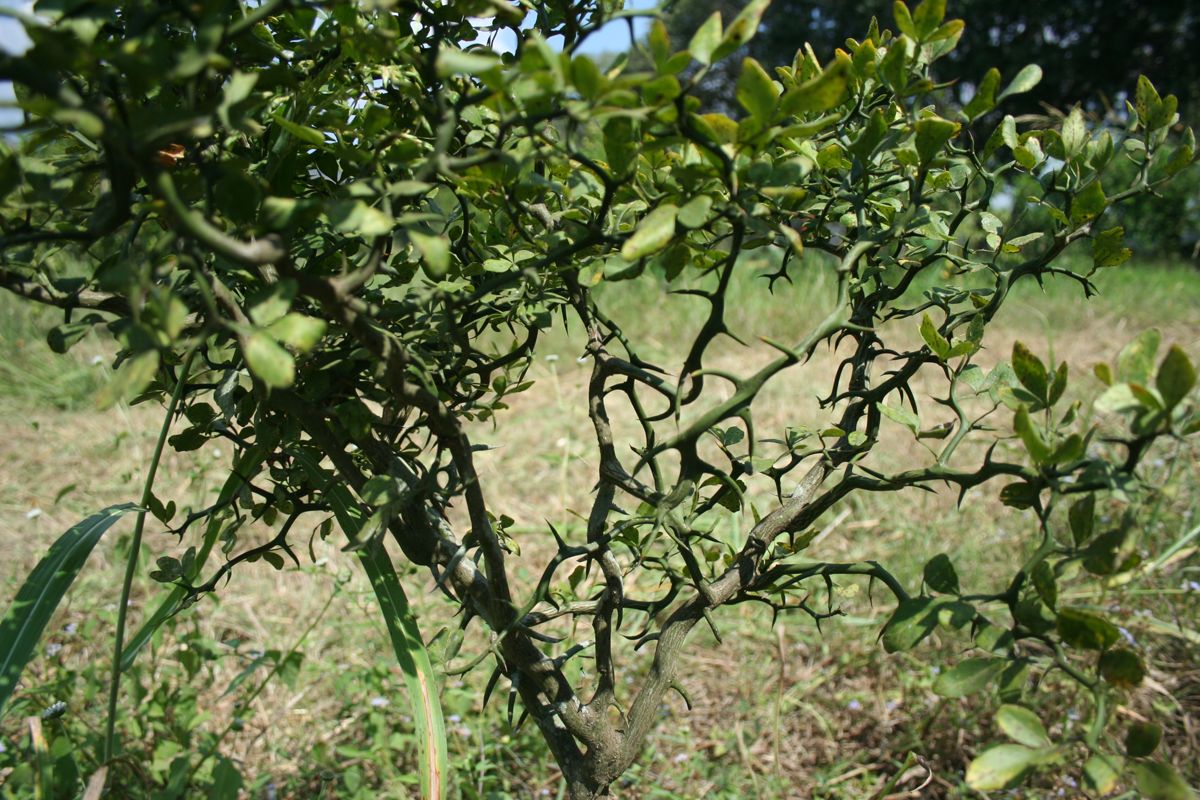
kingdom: Plantae
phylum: Tracheophyta
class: Magnoliopsida
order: Sapindales
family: Rutaceae
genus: Citrus
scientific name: Citrus trifoliata
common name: Japanese bitter-orange
